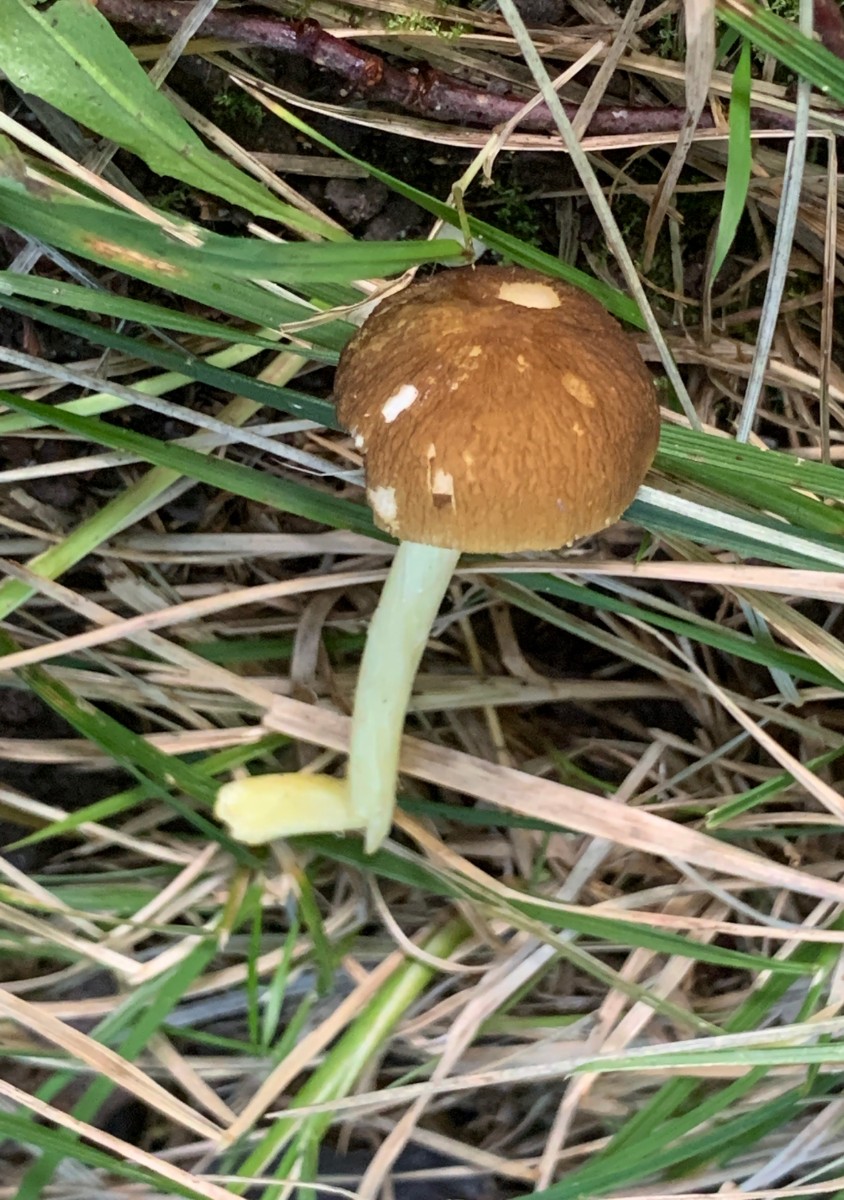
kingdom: Fungi
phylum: Basidiomycota
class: Agaricomycetes
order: Agaricales
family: Pluteaceae
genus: Pluteus
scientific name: Pluteus romellii
